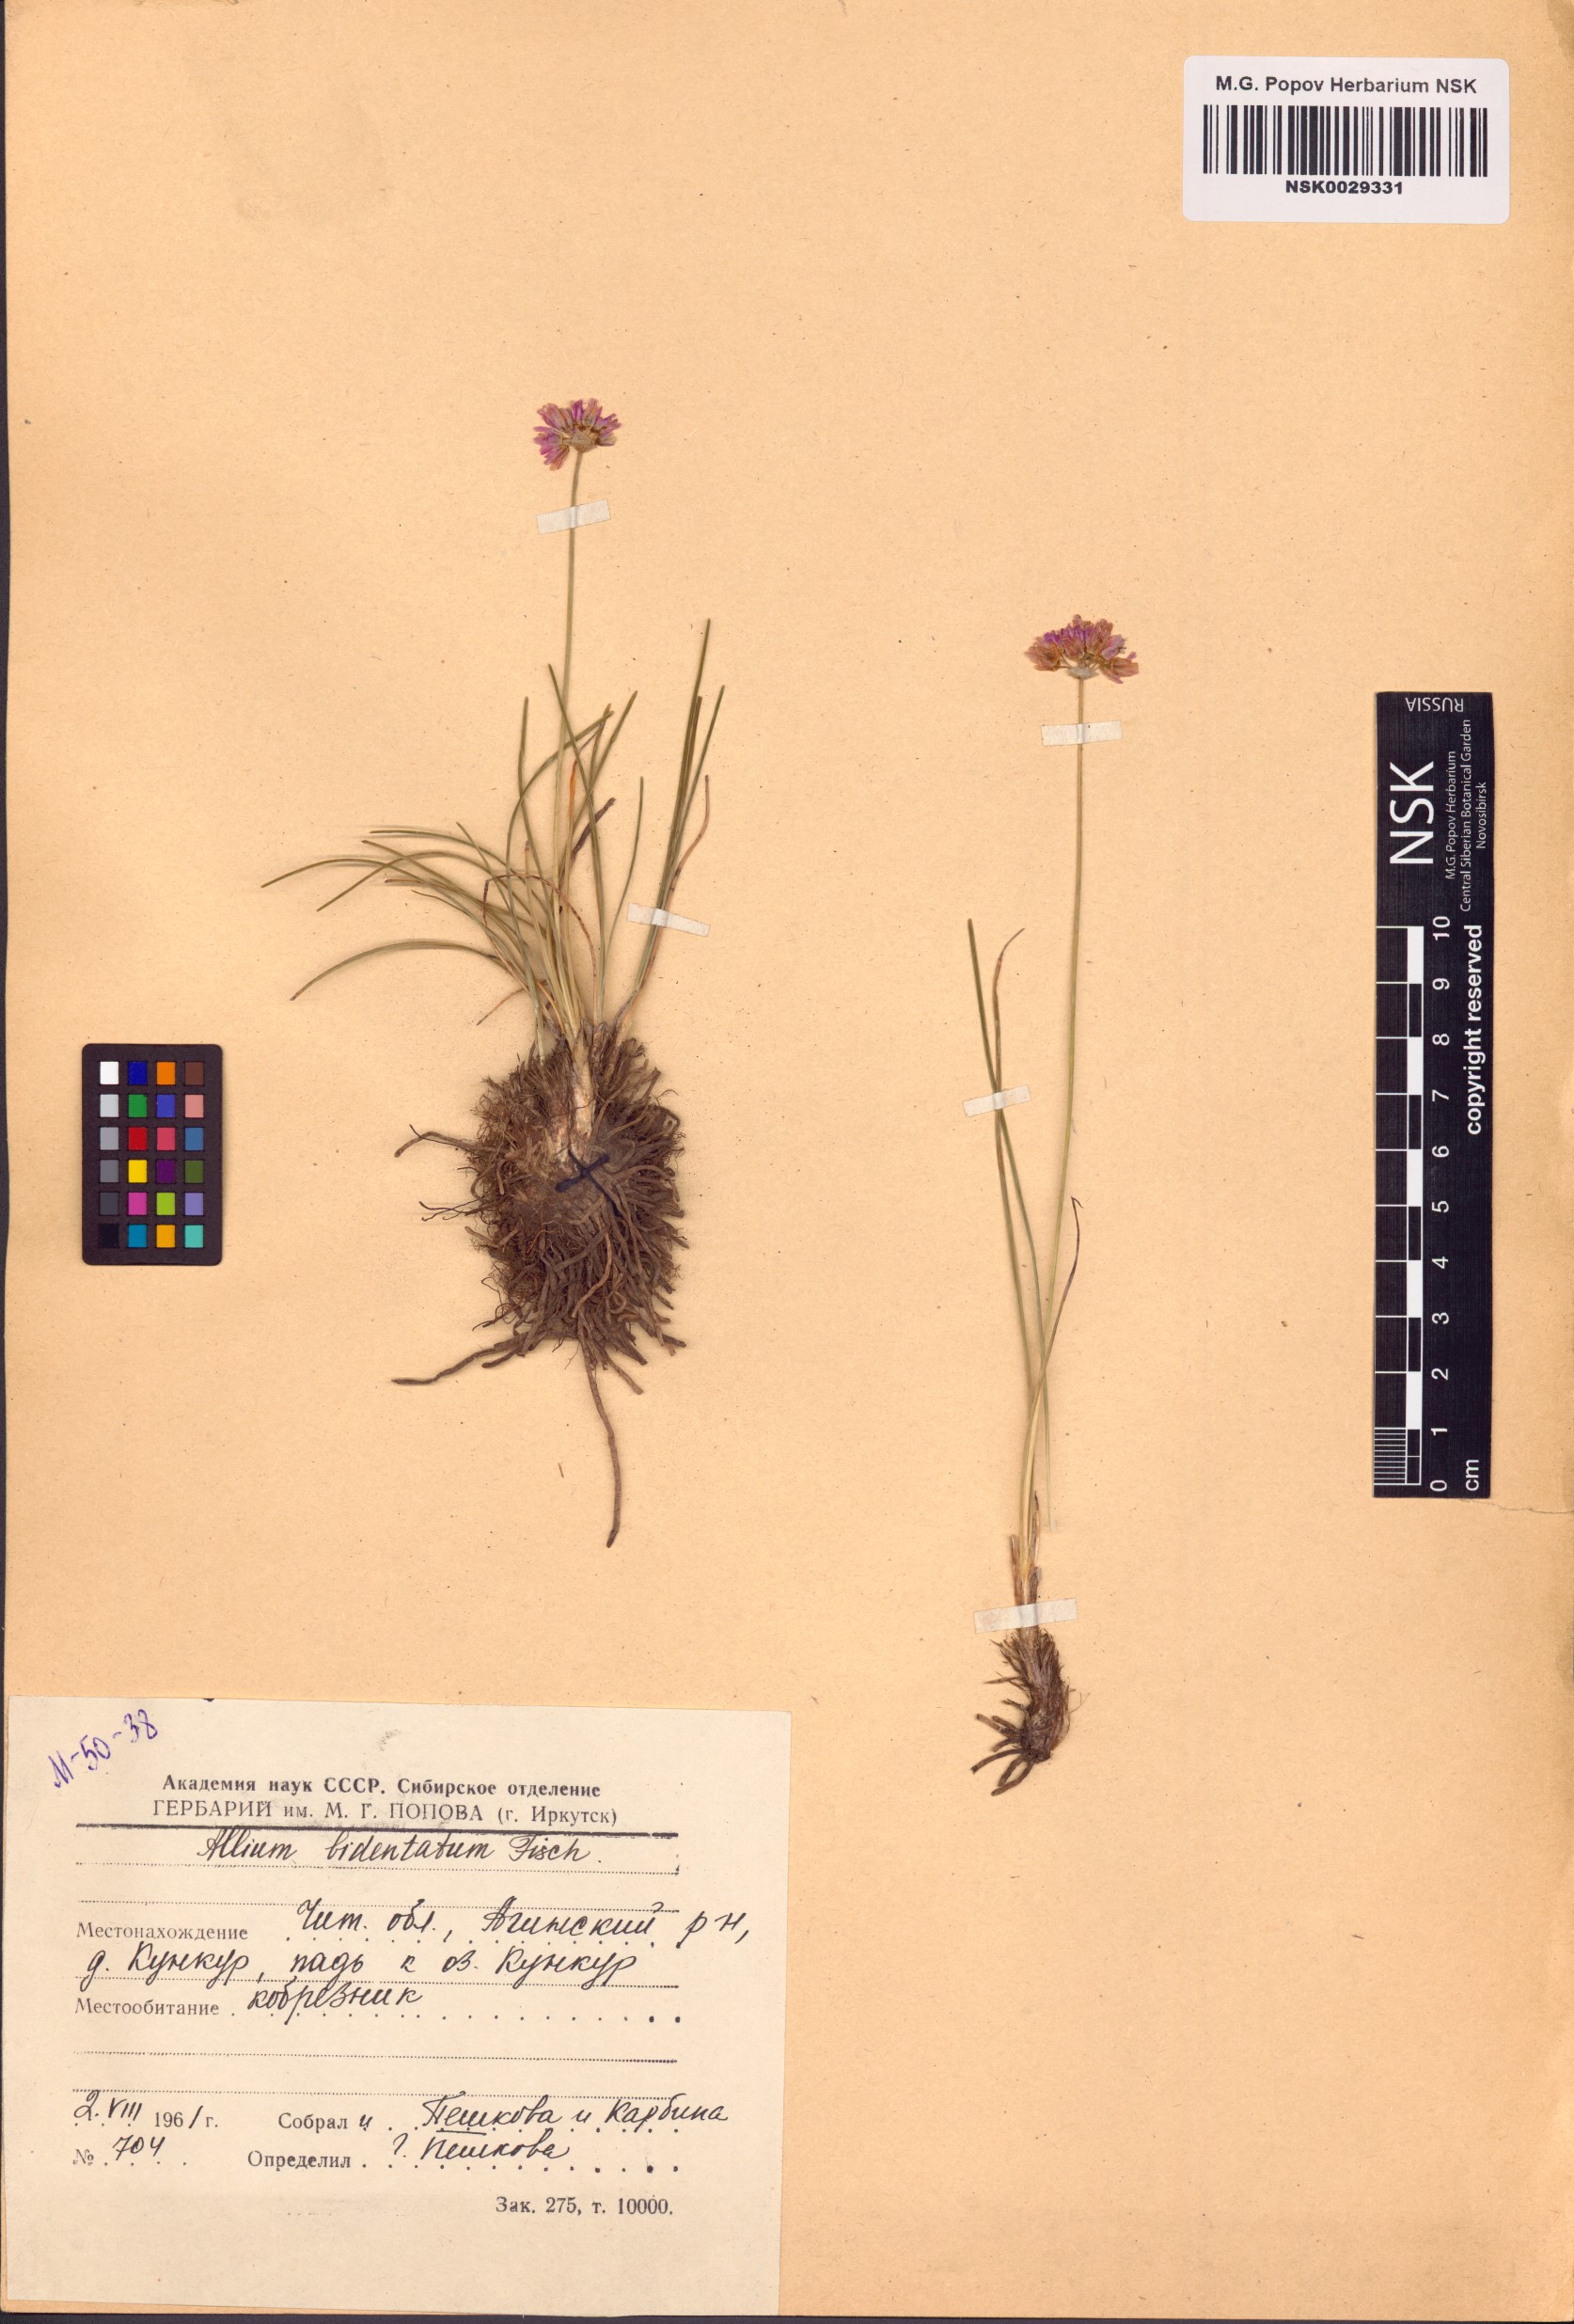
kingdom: Plantae
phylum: Tracheophyta
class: Liliopsida
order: Asparagales
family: Amaryllidaceae
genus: Allium
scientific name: Allium bidentatum
